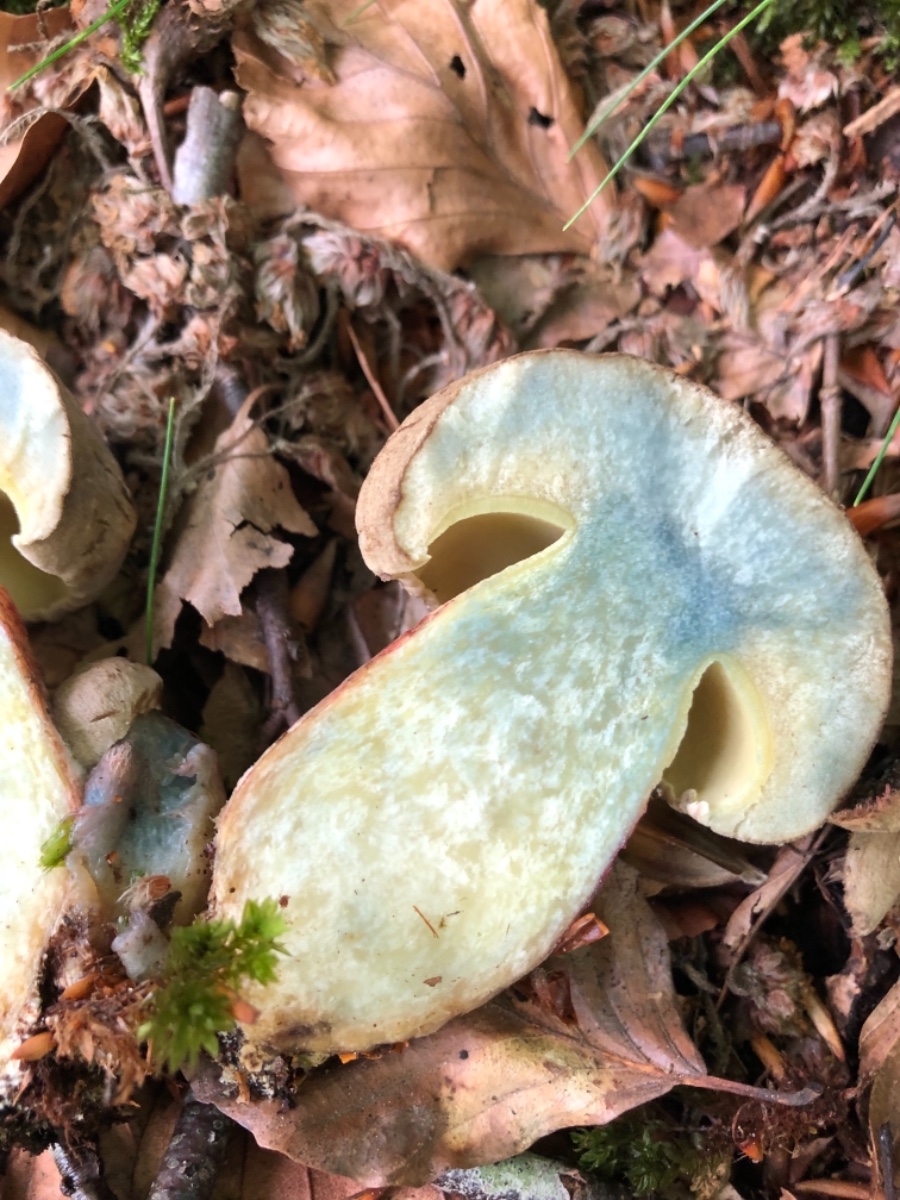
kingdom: Fungi
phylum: Basidiomycota
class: Agaricomycetes
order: Boletales
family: Boletaceae
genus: Caloboletus
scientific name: Caloboletus calopus
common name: skønfodet rørhat
